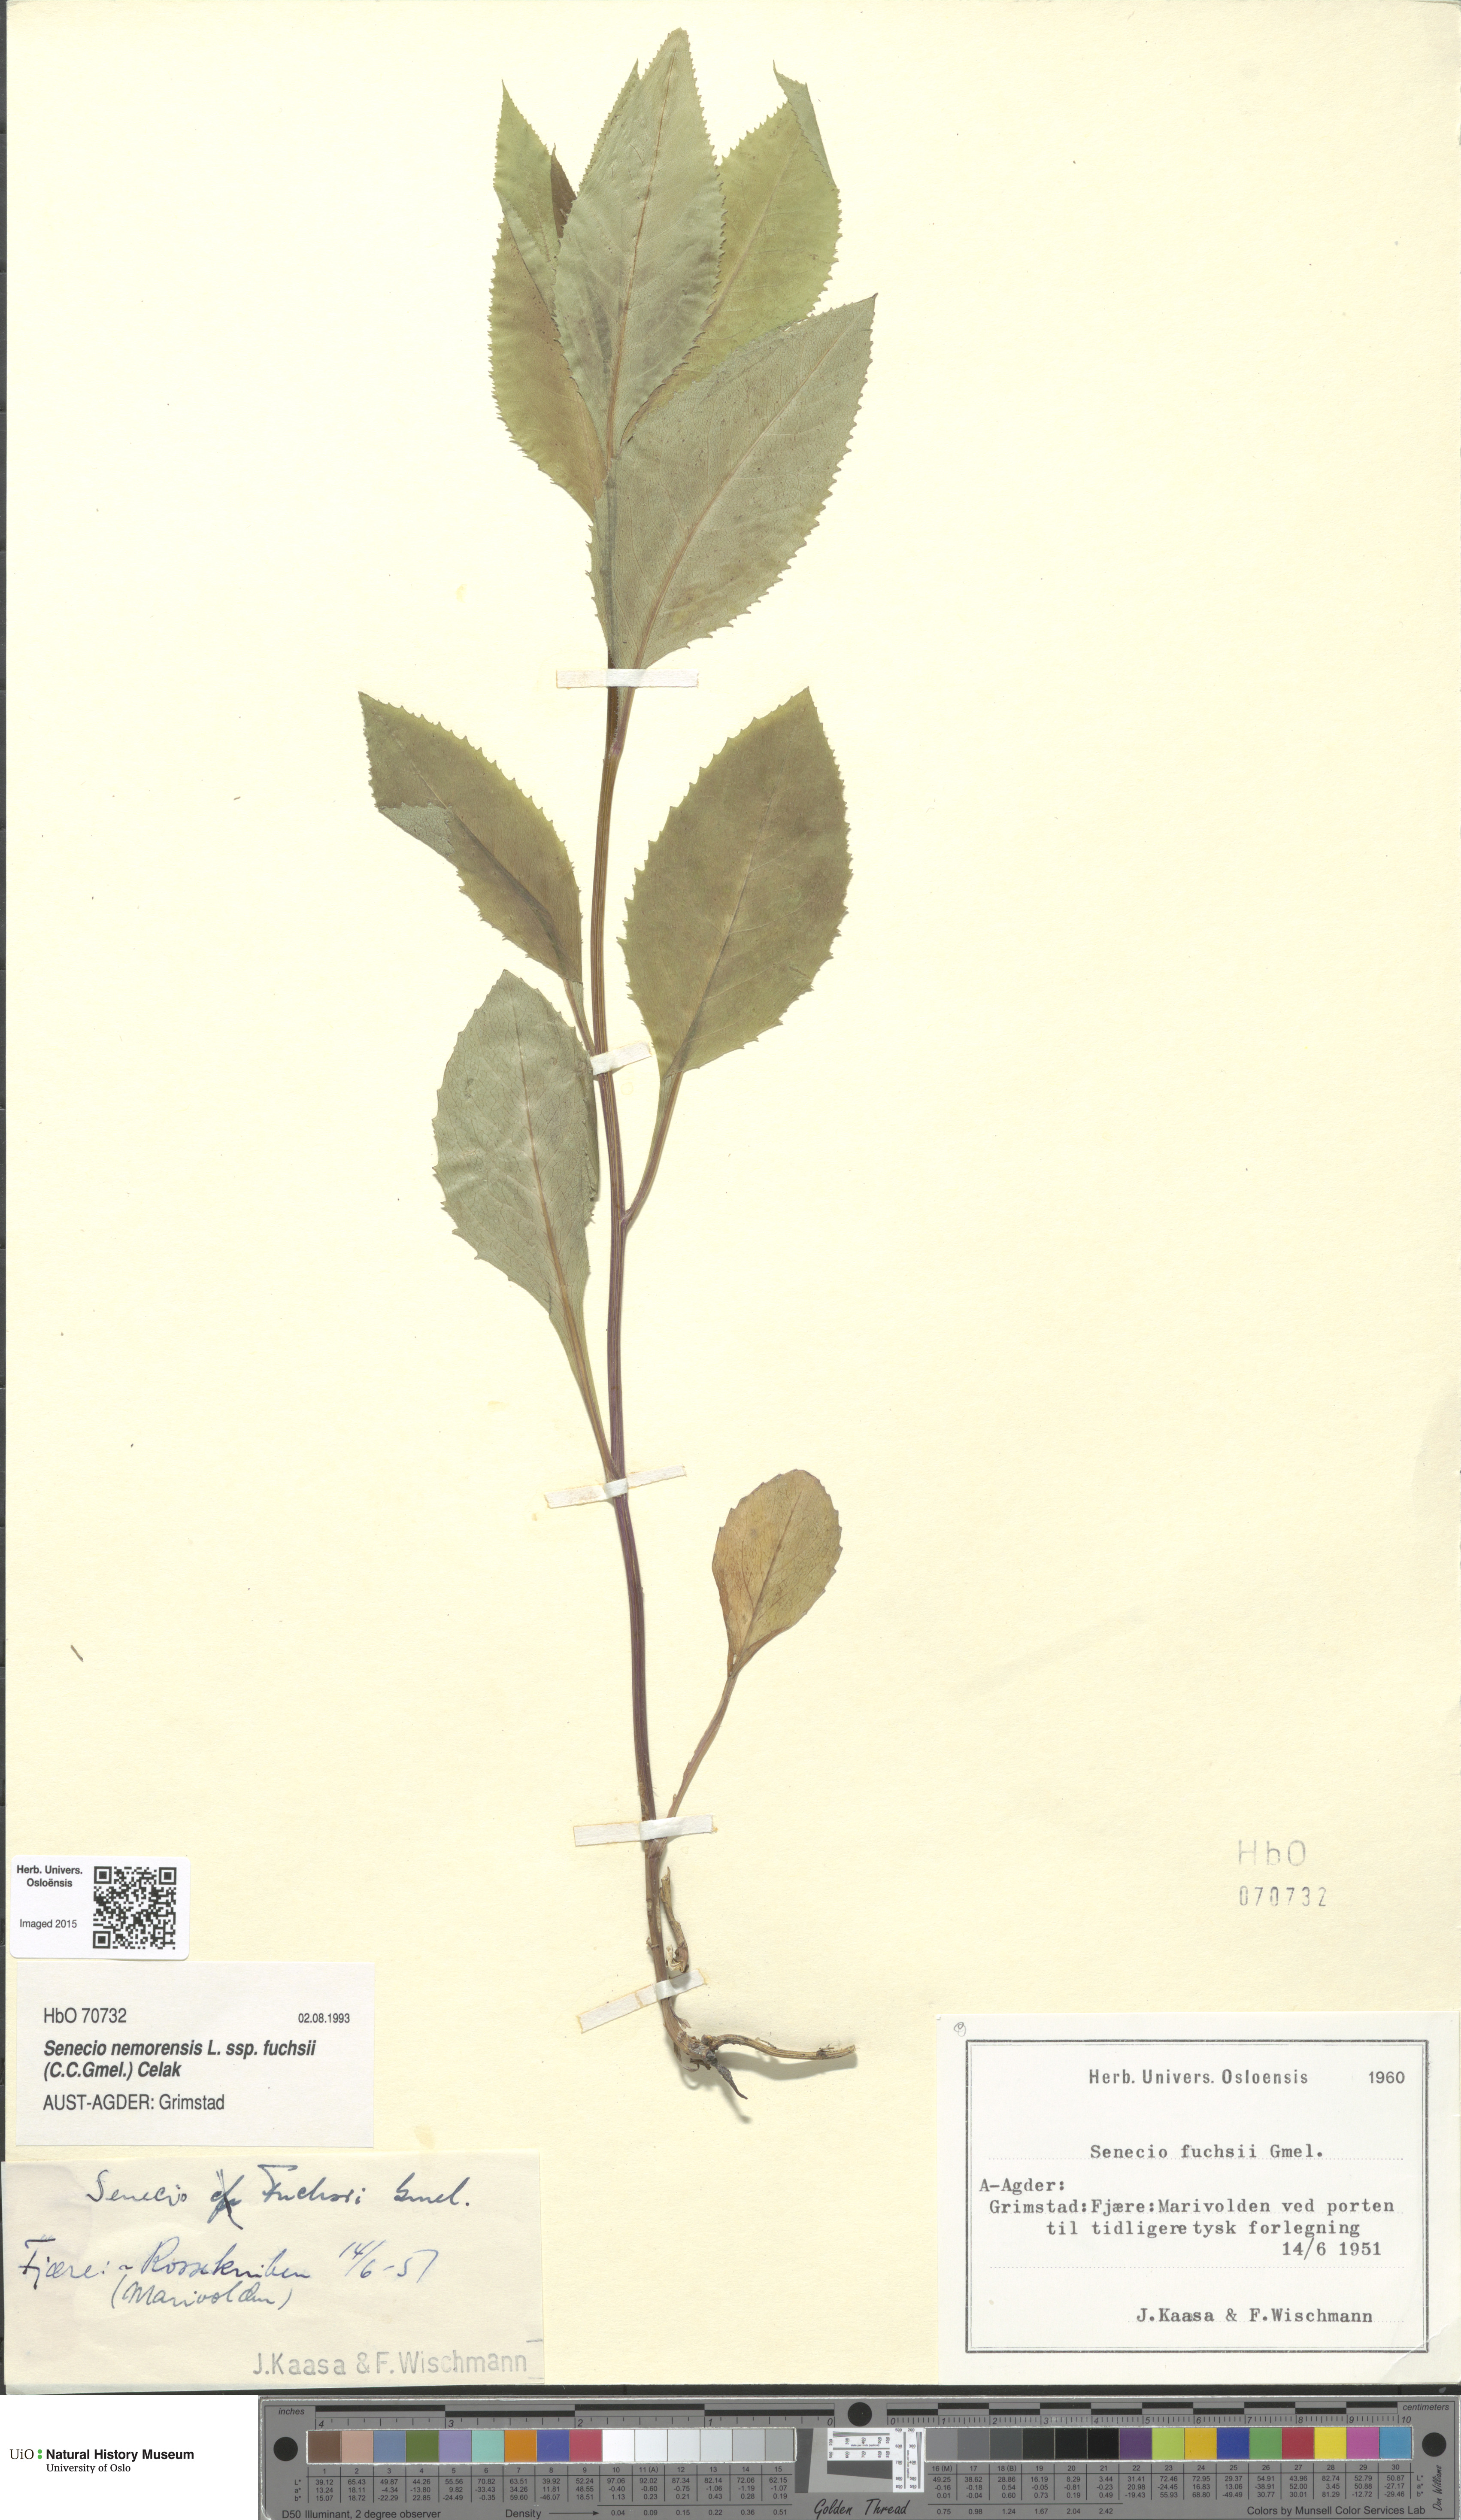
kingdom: Plantae
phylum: Tracheophyta
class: Magnoliopsida
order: Asterales
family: Asteraceae
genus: Senecio
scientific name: Senecio ovatus
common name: Wood ragwort
